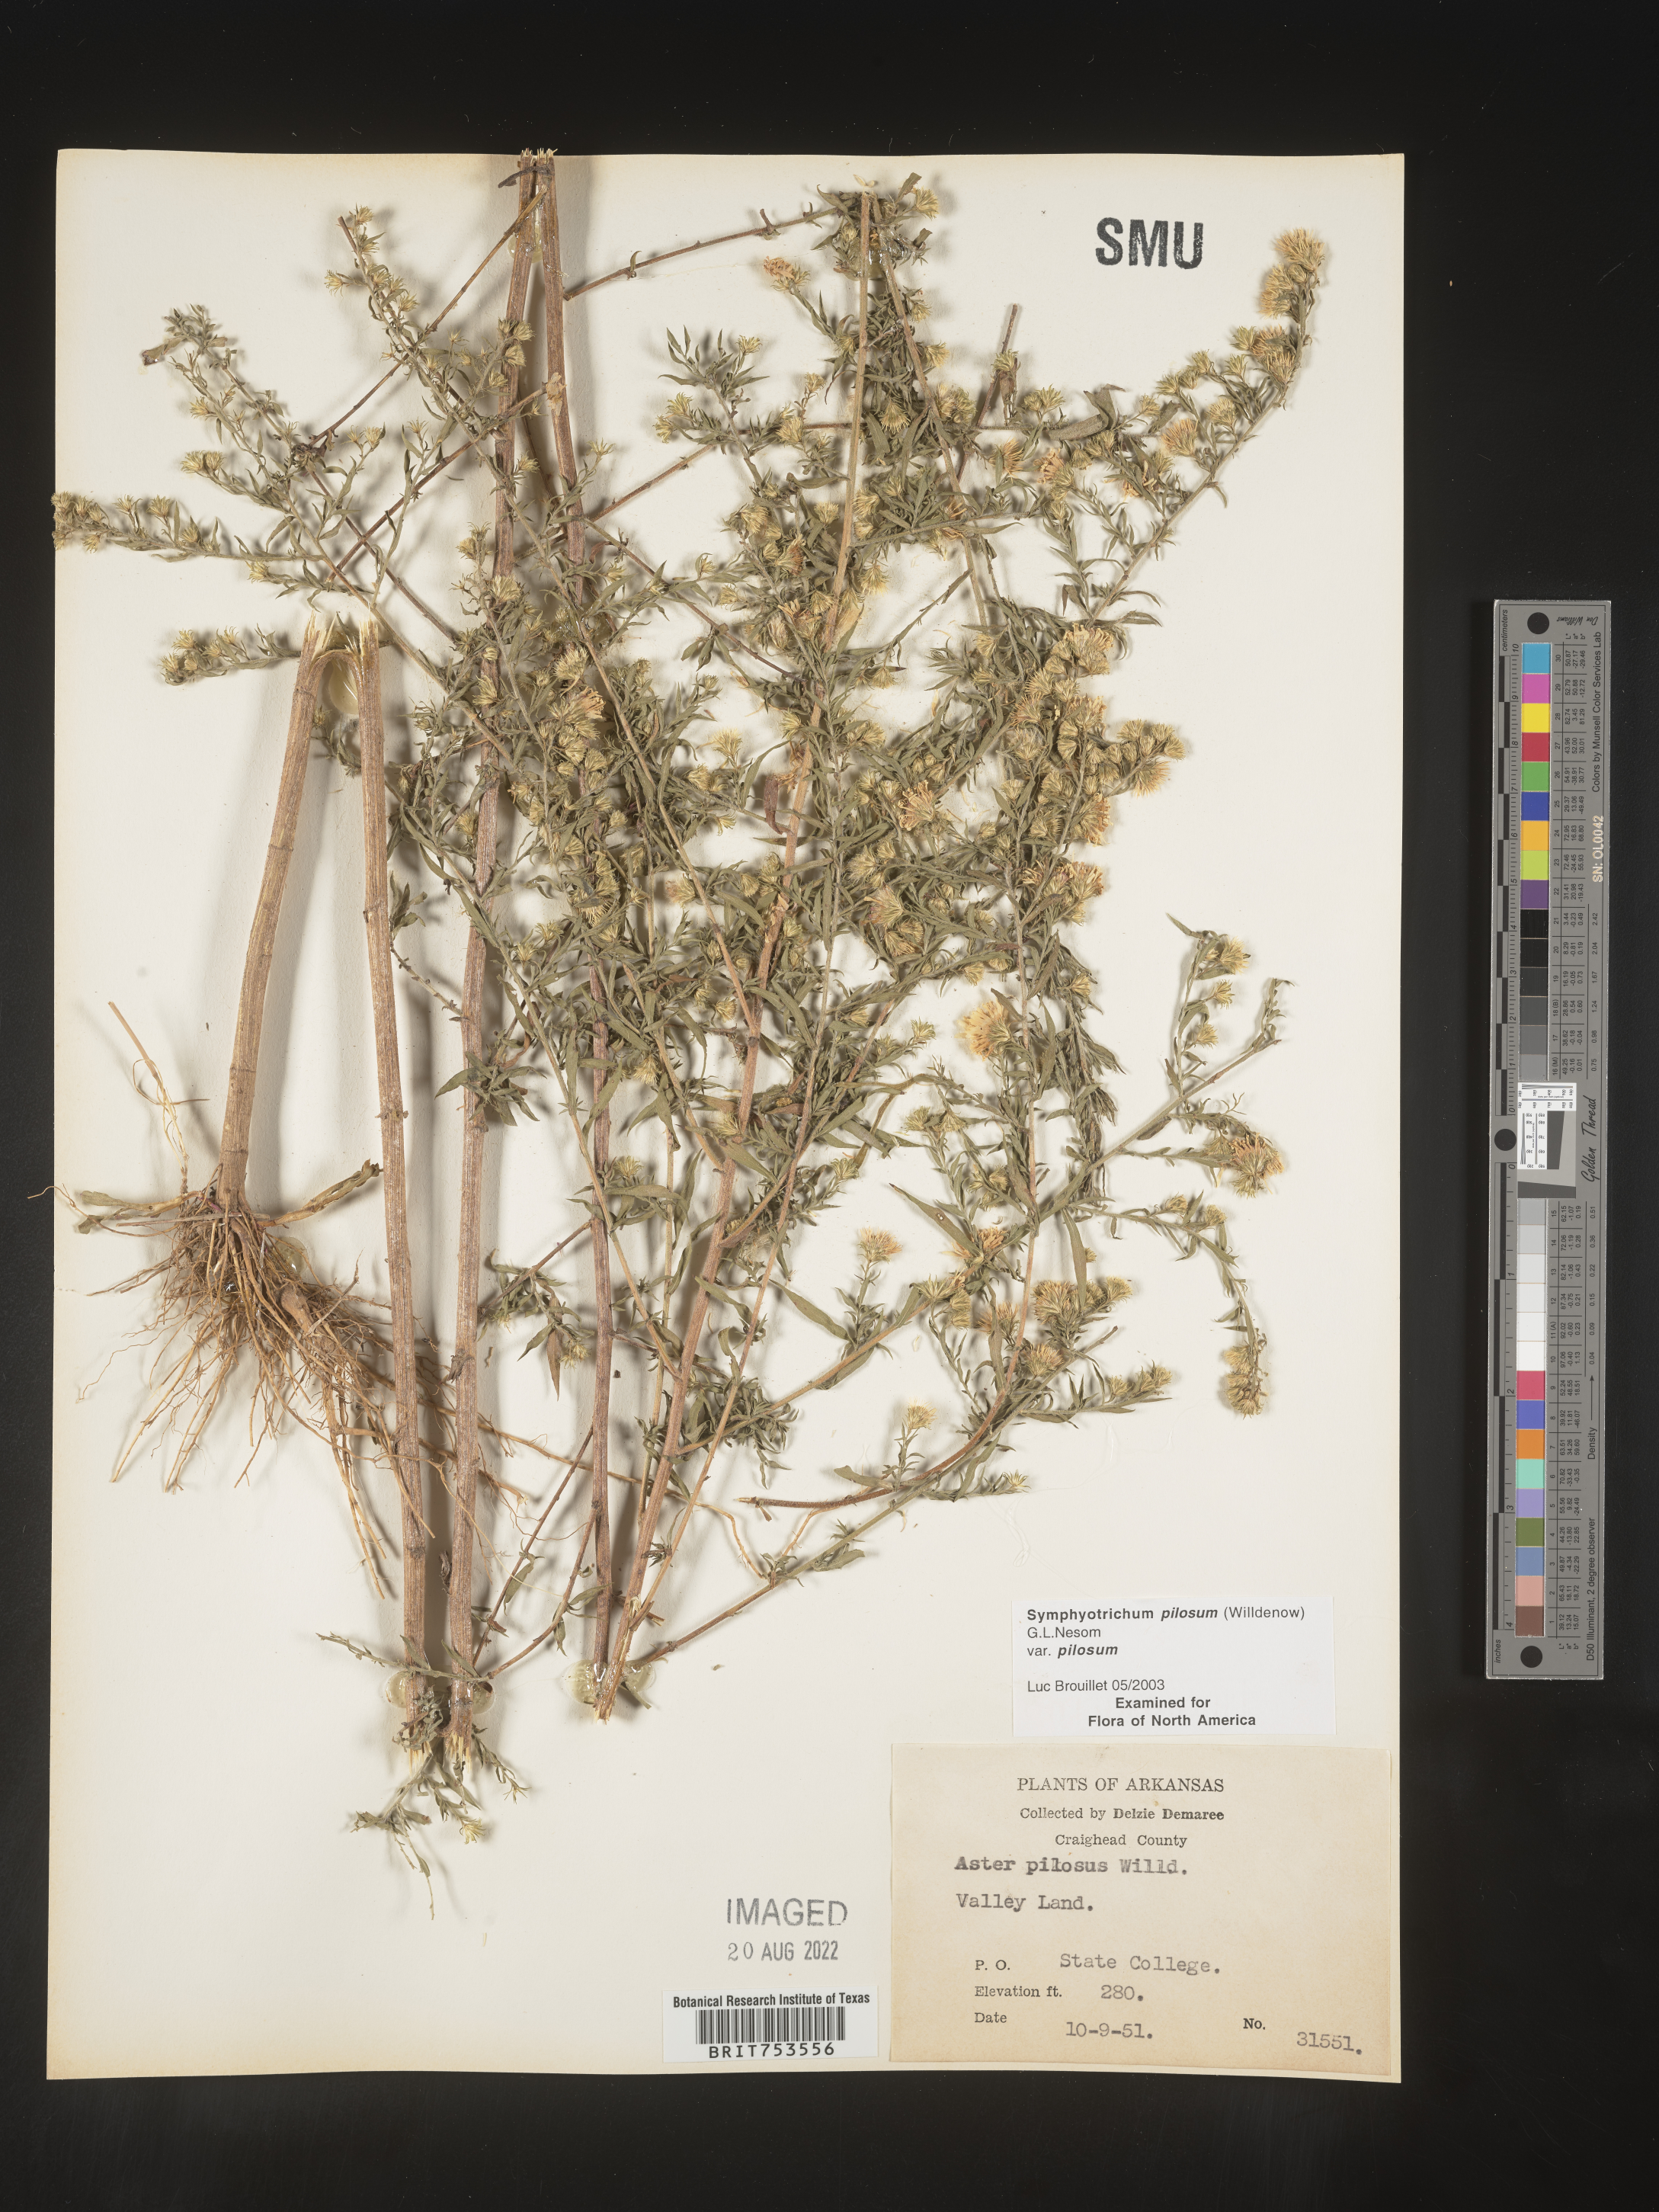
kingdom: Plantae
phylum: Tracheophyta
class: Magnoliopsida
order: Asterales
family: Asteraceae
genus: Symphyotrichum
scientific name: Symphyotrichum pilosum
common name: Awl aster
